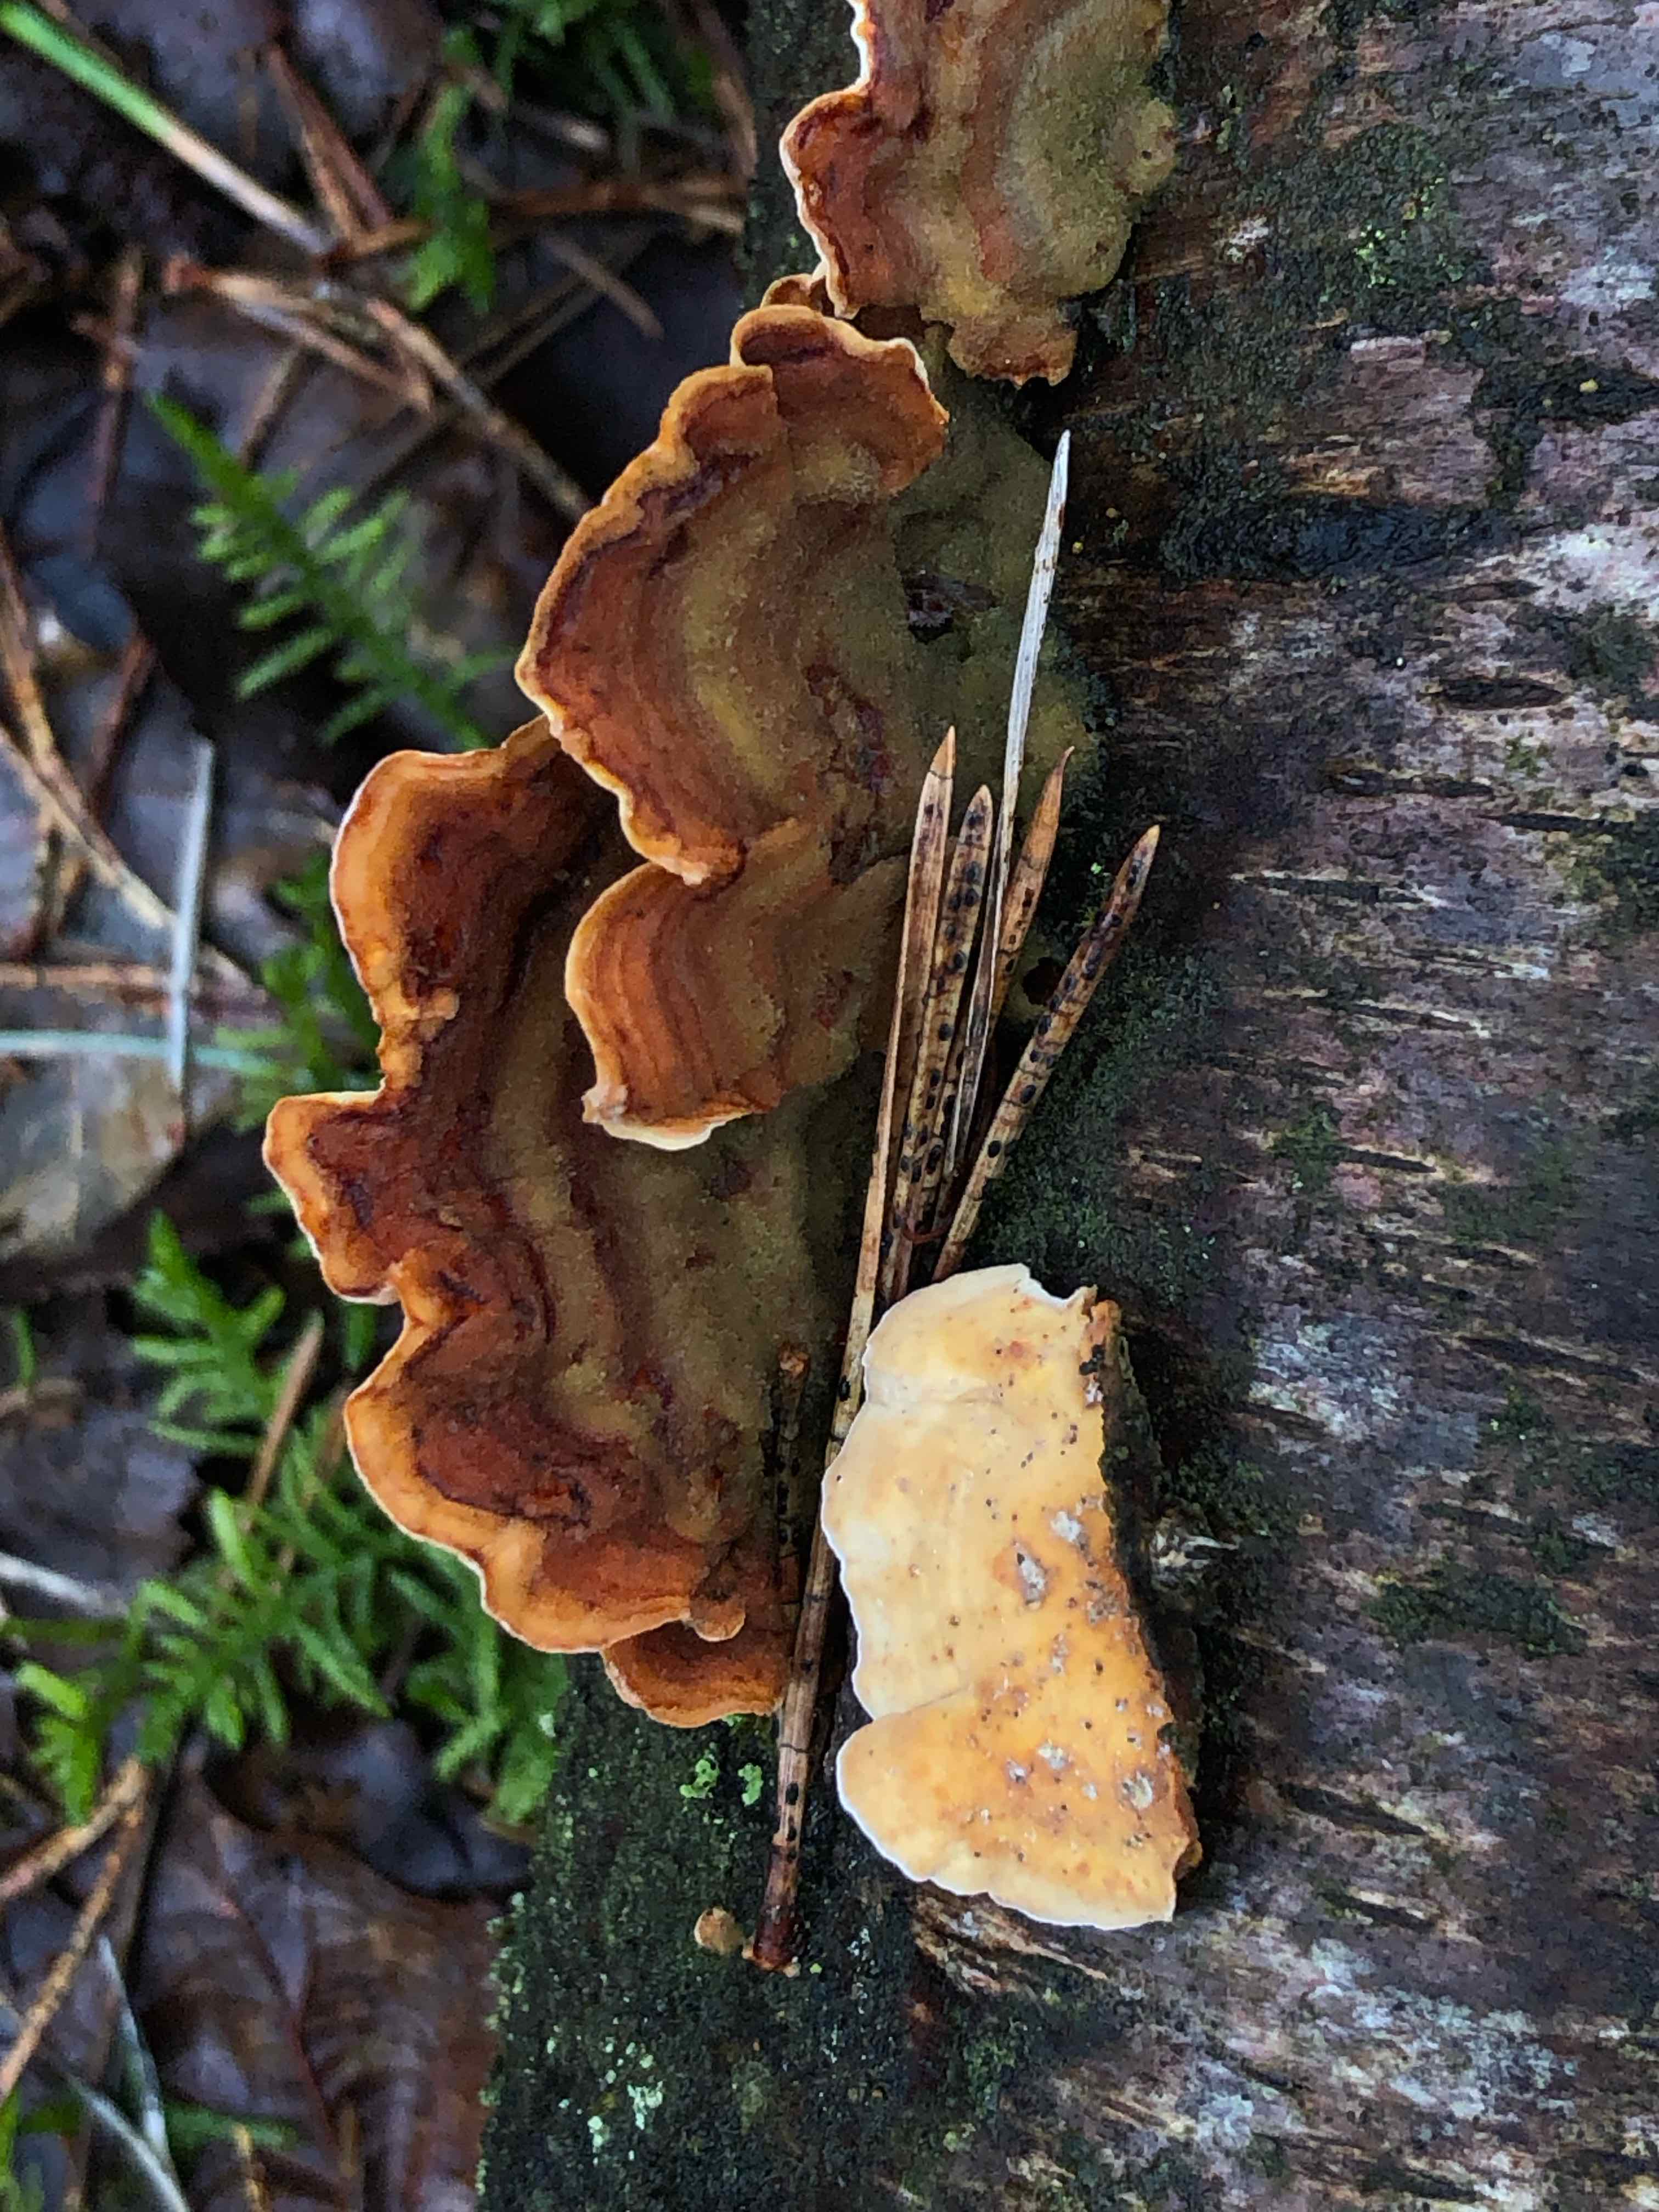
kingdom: Fungi
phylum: Basidiomycota
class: Agaricomycetes
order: Russulales
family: Stereaceae
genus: Stereum
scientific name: Stereum subtomentosum
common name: smuk lædersvamp
